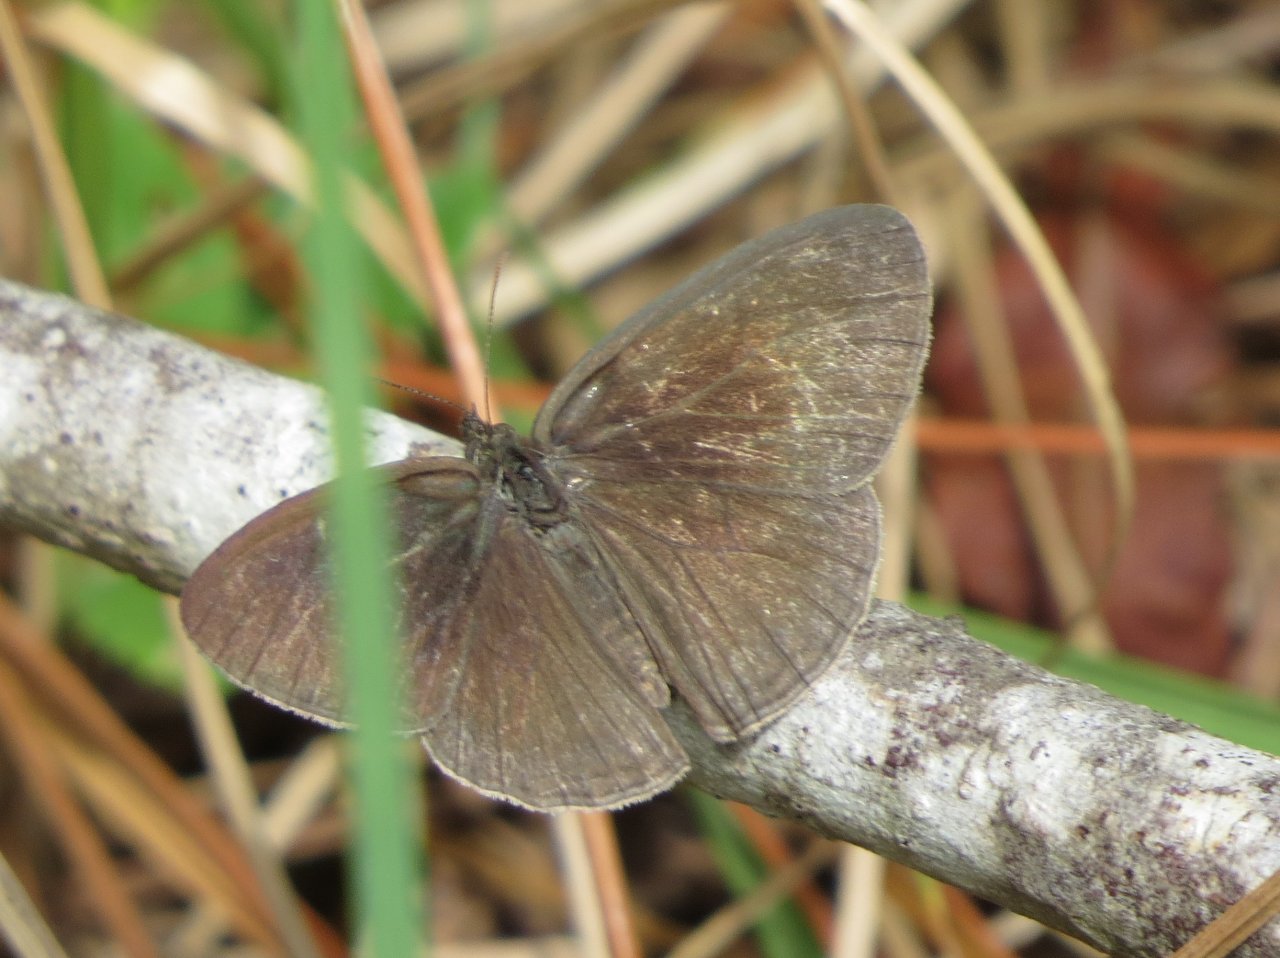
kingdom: Animalia
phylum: Arthropoda
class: Insecta
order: Lepidoptera
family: Nymphalidae
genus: Hermeuptychia
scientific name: Hermeuptychia hermes
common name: Carolina Satyr
